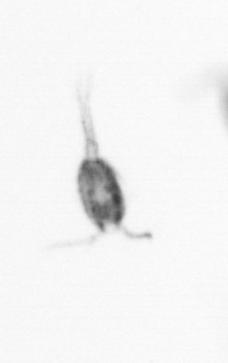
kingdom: Animalia
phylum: Arthropoda
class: Copepoda
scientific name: Copepoda
